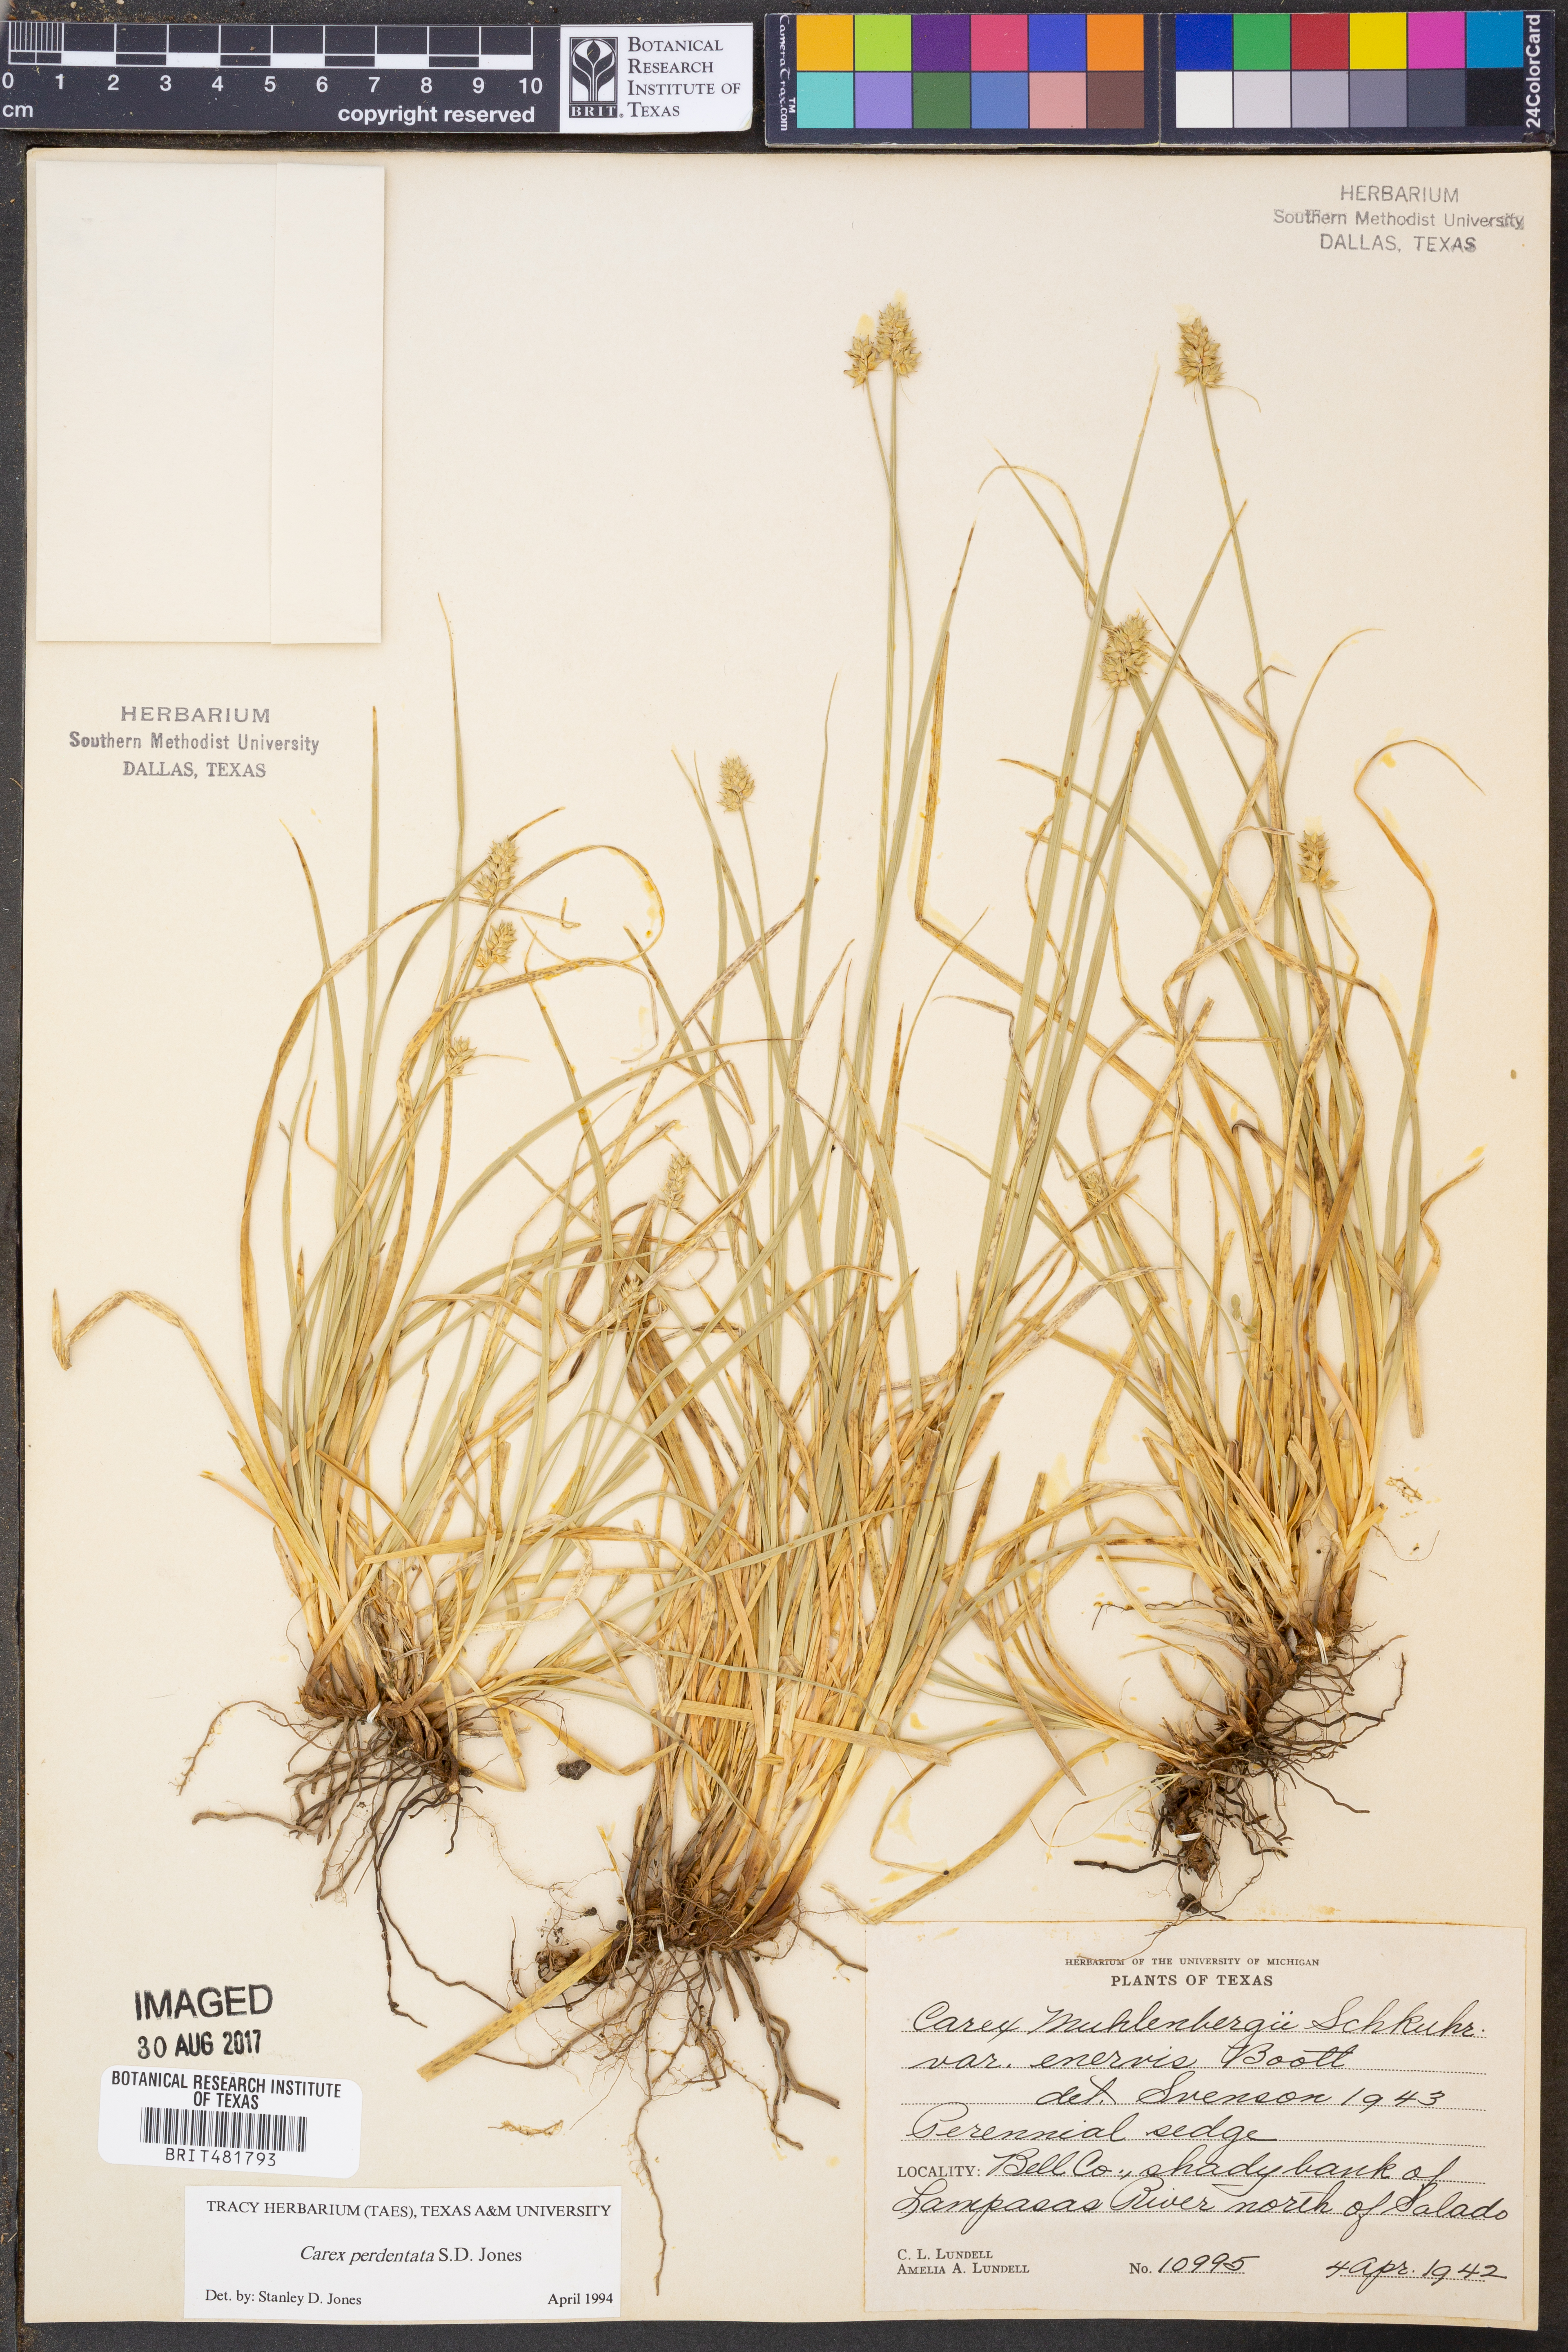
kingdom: Plantae
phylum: Tracheophyta
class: Liliopsida
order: Poales
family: Cyperaceae
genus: Carex
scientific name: Carex perdentata
